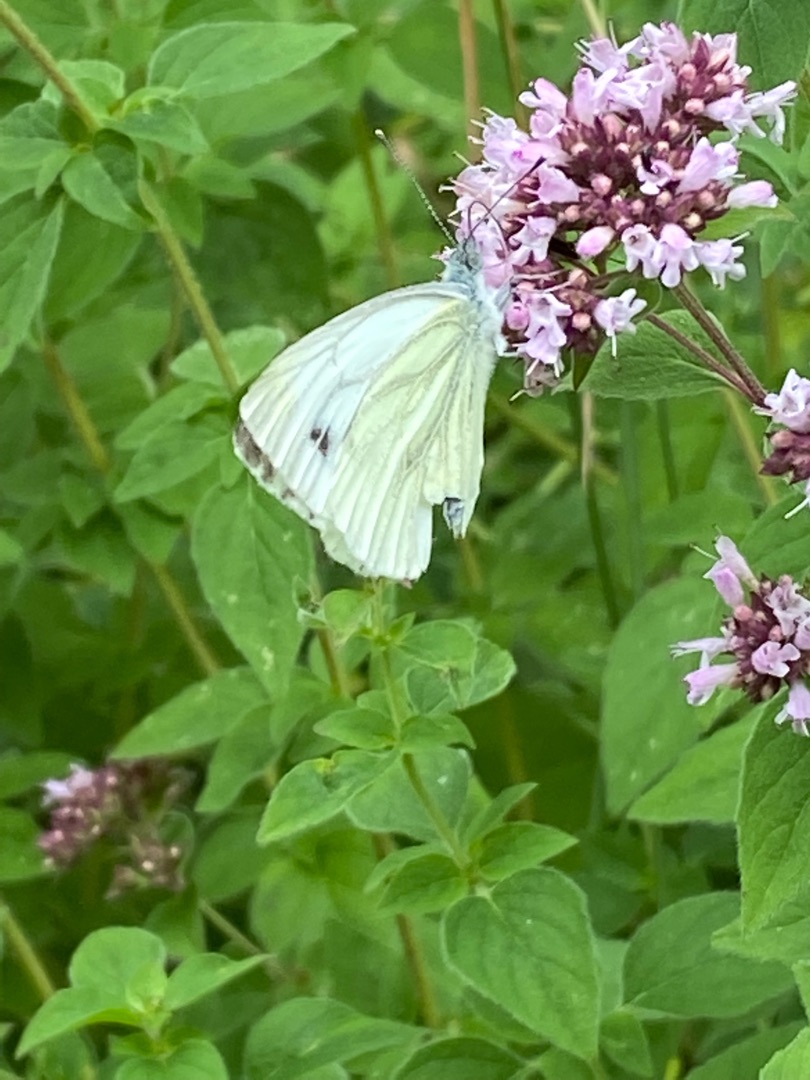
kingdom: Animalia
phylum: Arthropoda
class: Insecta
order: Lepidoptera
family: Pieridae
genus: Pieris
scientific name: Pieris napi
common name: Grønåret kålsommerfugl
